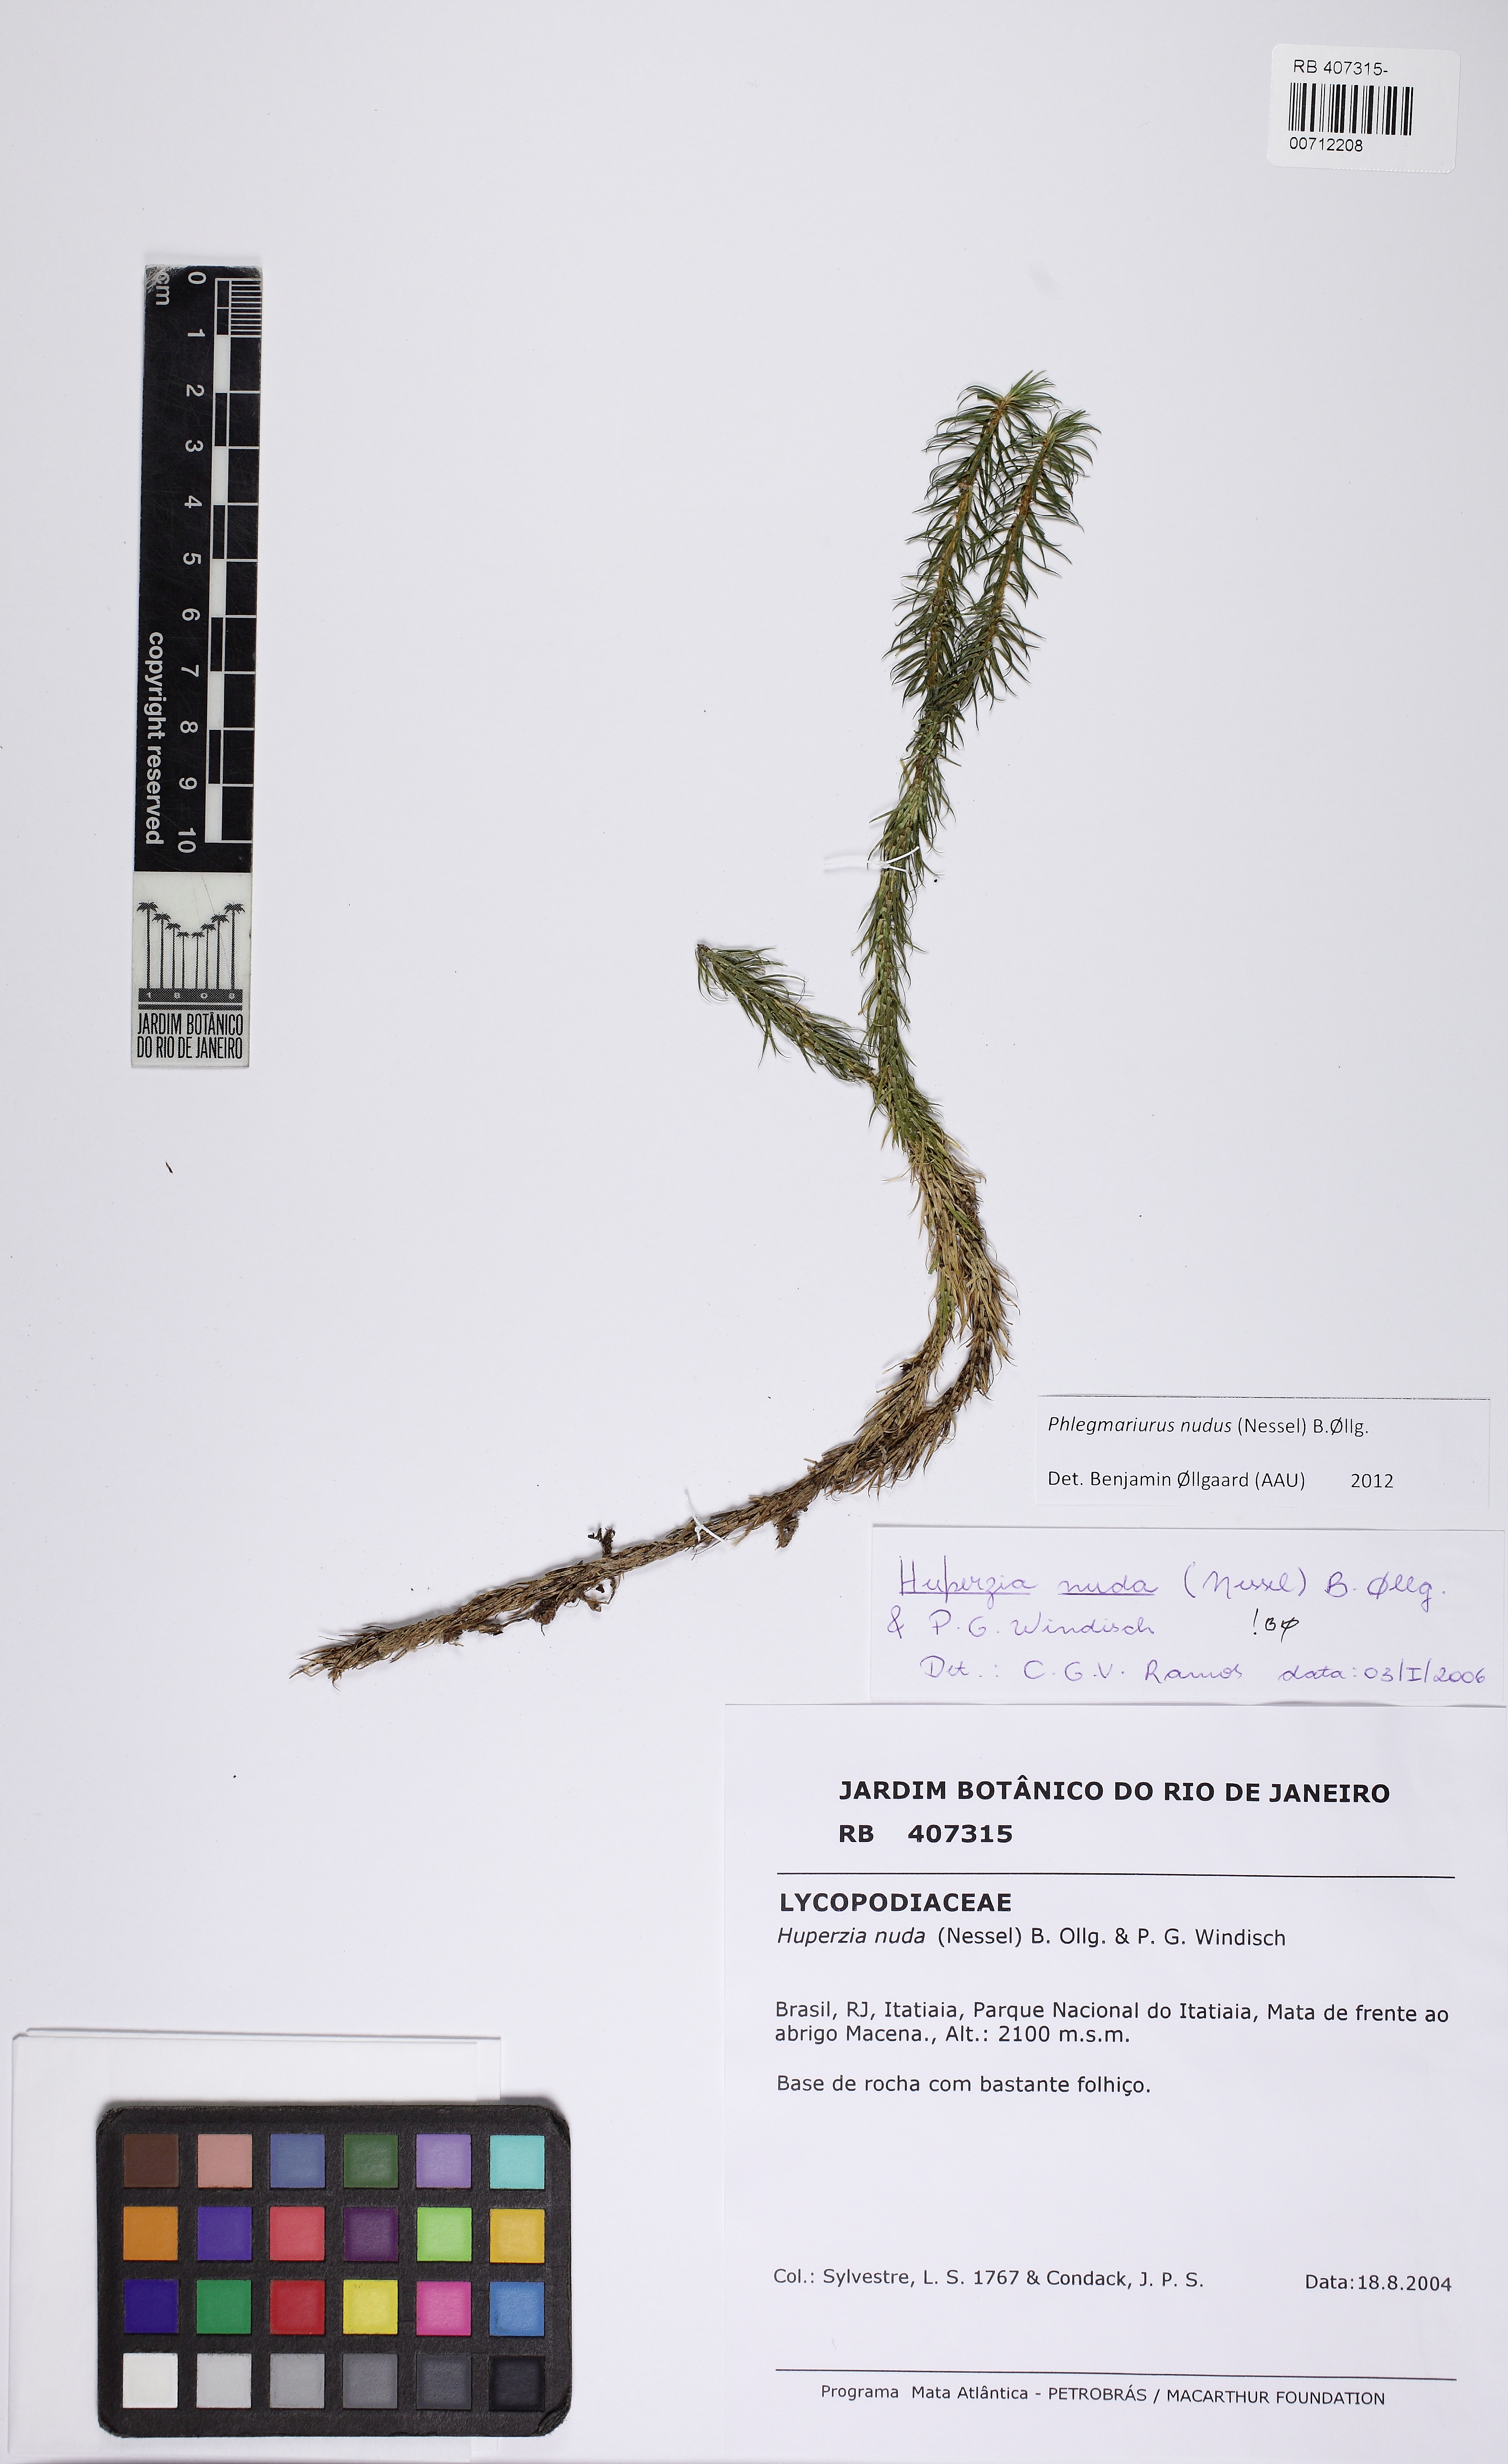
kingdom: Plantae
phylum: Tracheophyta
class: Lycopodiopsida
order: Lycopodiales
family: Lycopodiaceae
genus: Phlegmariurus
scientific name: Phlegmariurus nudus
